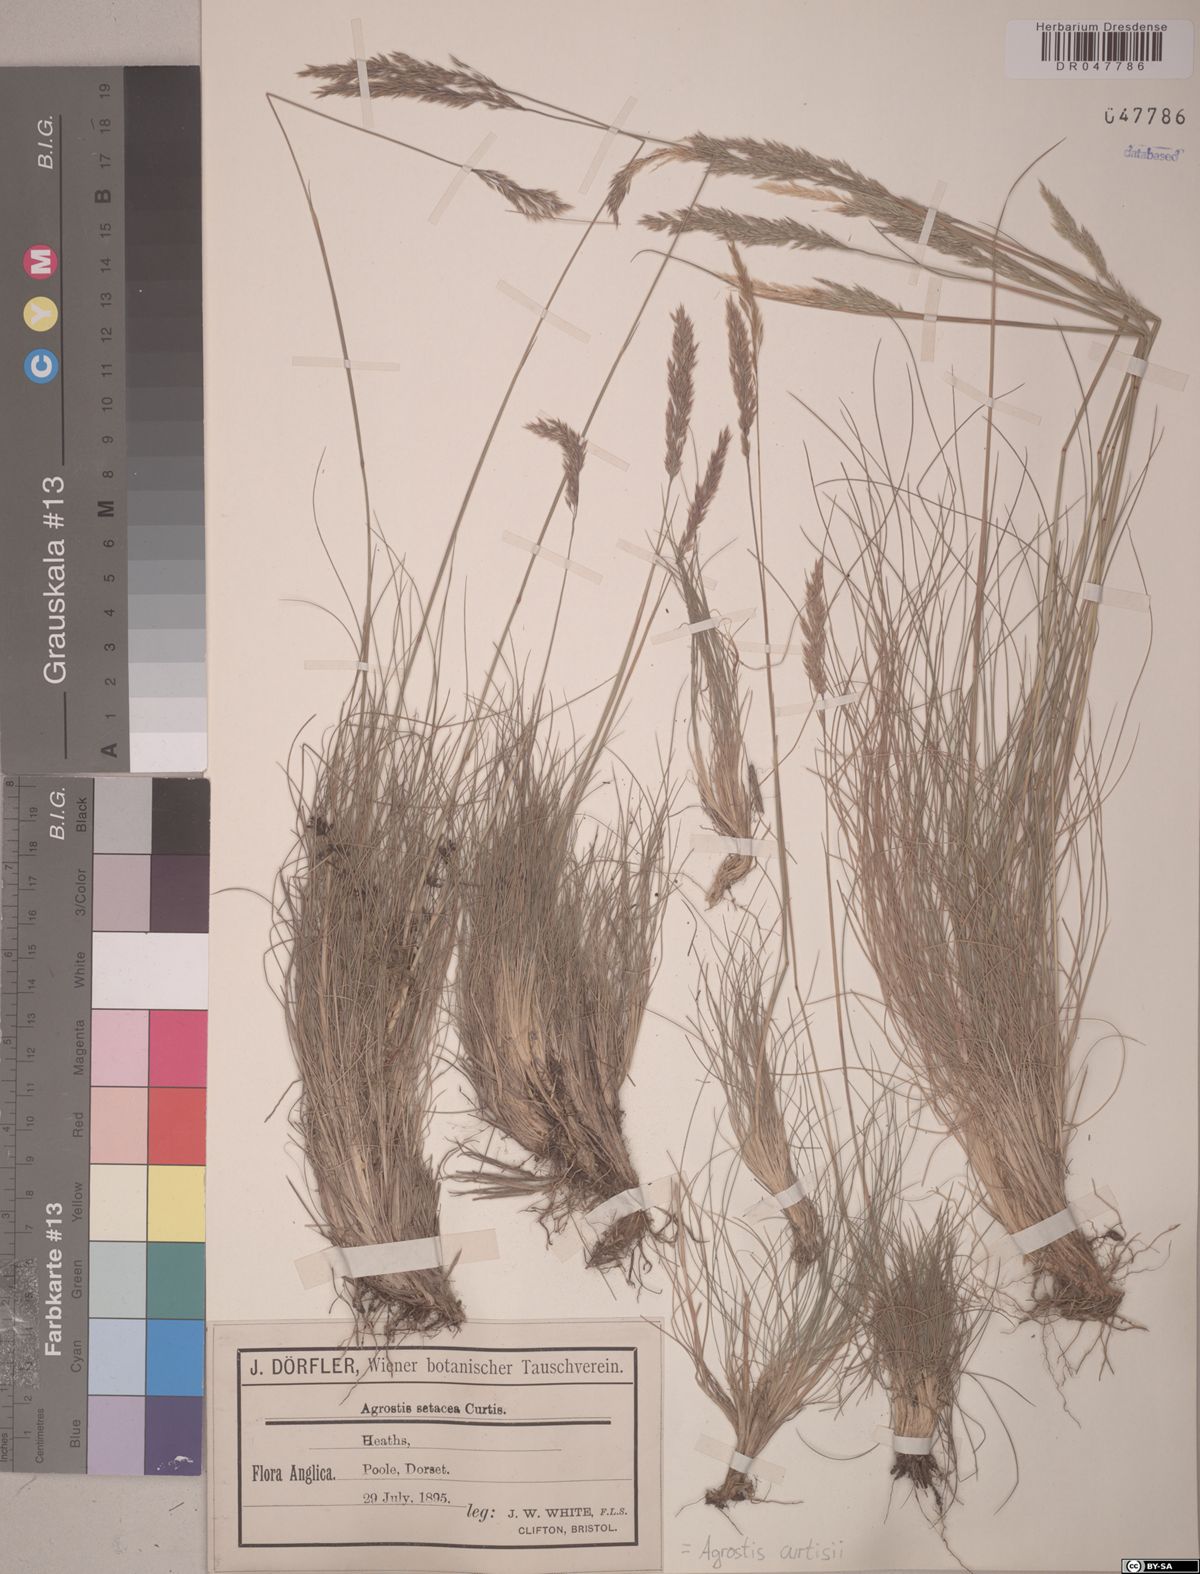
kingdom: Plantae
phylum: Tracheophyta
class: Liliopsida
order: Poales
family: Poaceae
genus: Alpagrostis
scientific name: Alpagrostis setacea
